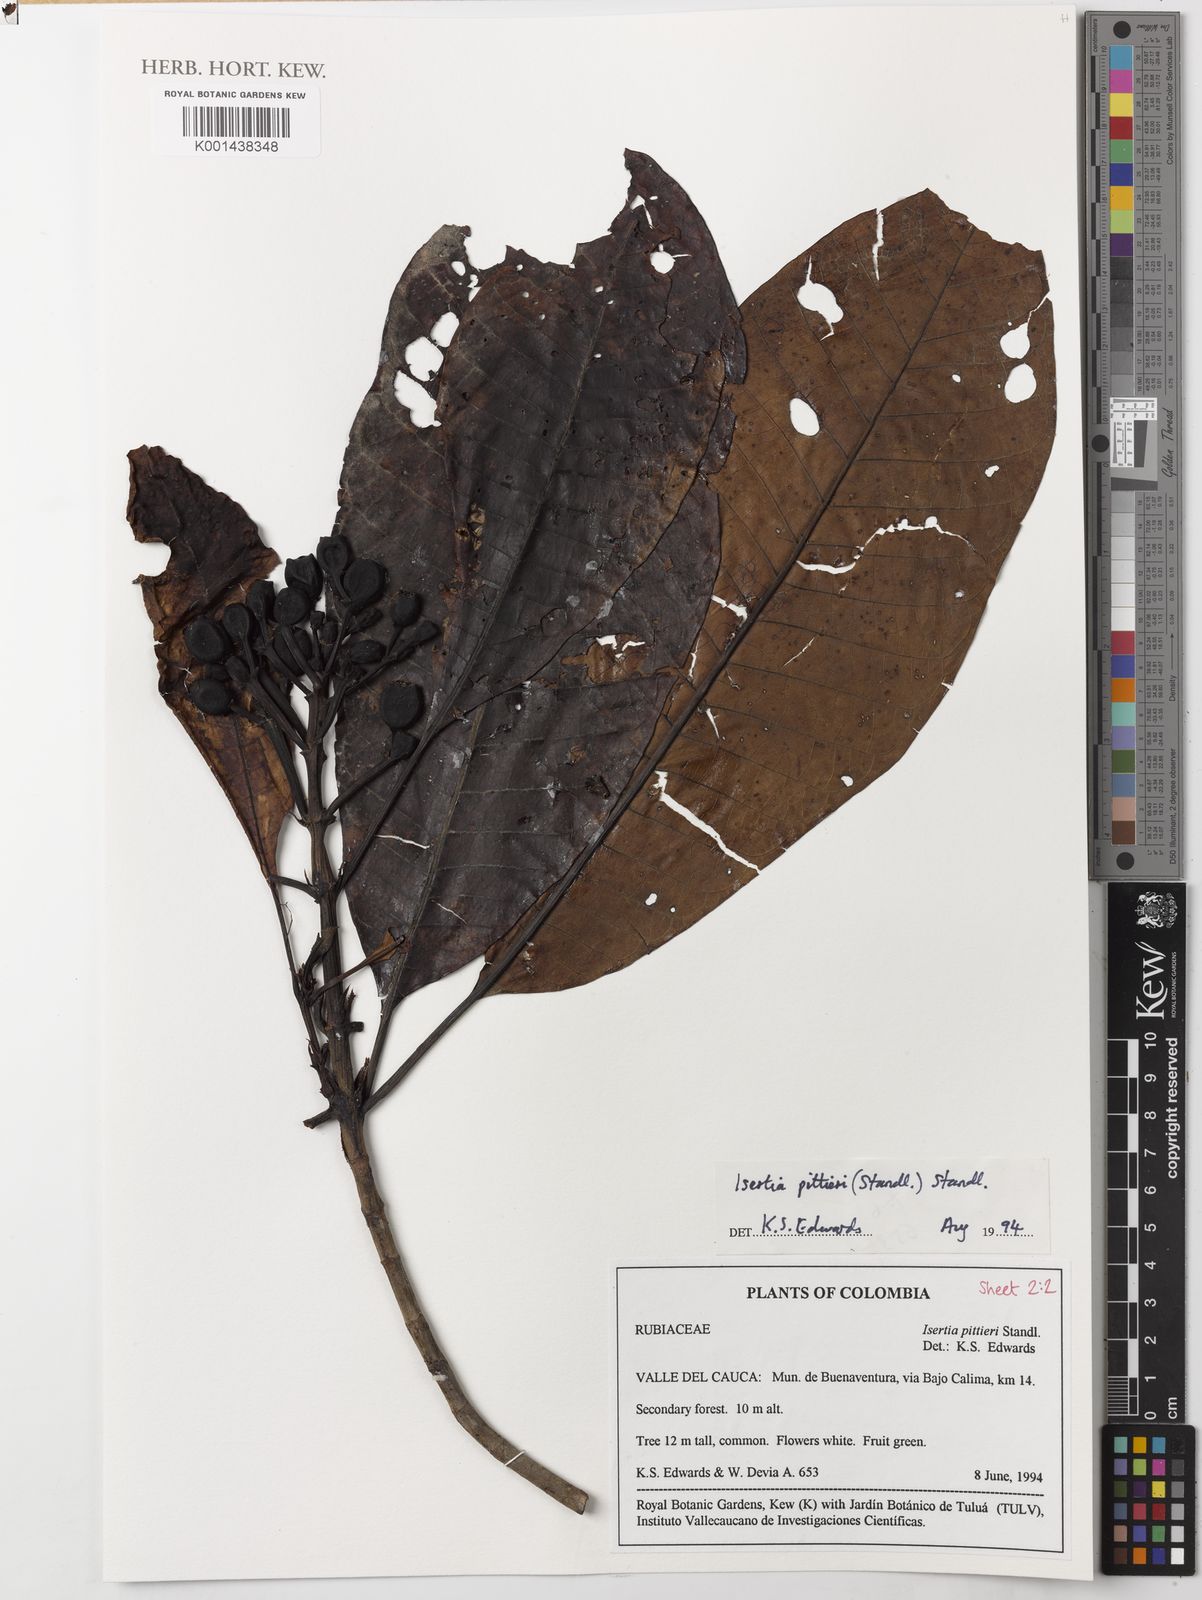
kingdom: Plantae
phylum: Tracheophyta
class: Magnoliopsida
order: Gentianales
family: Rubiaceae
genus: Isertia
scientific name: Isertia pittieri
